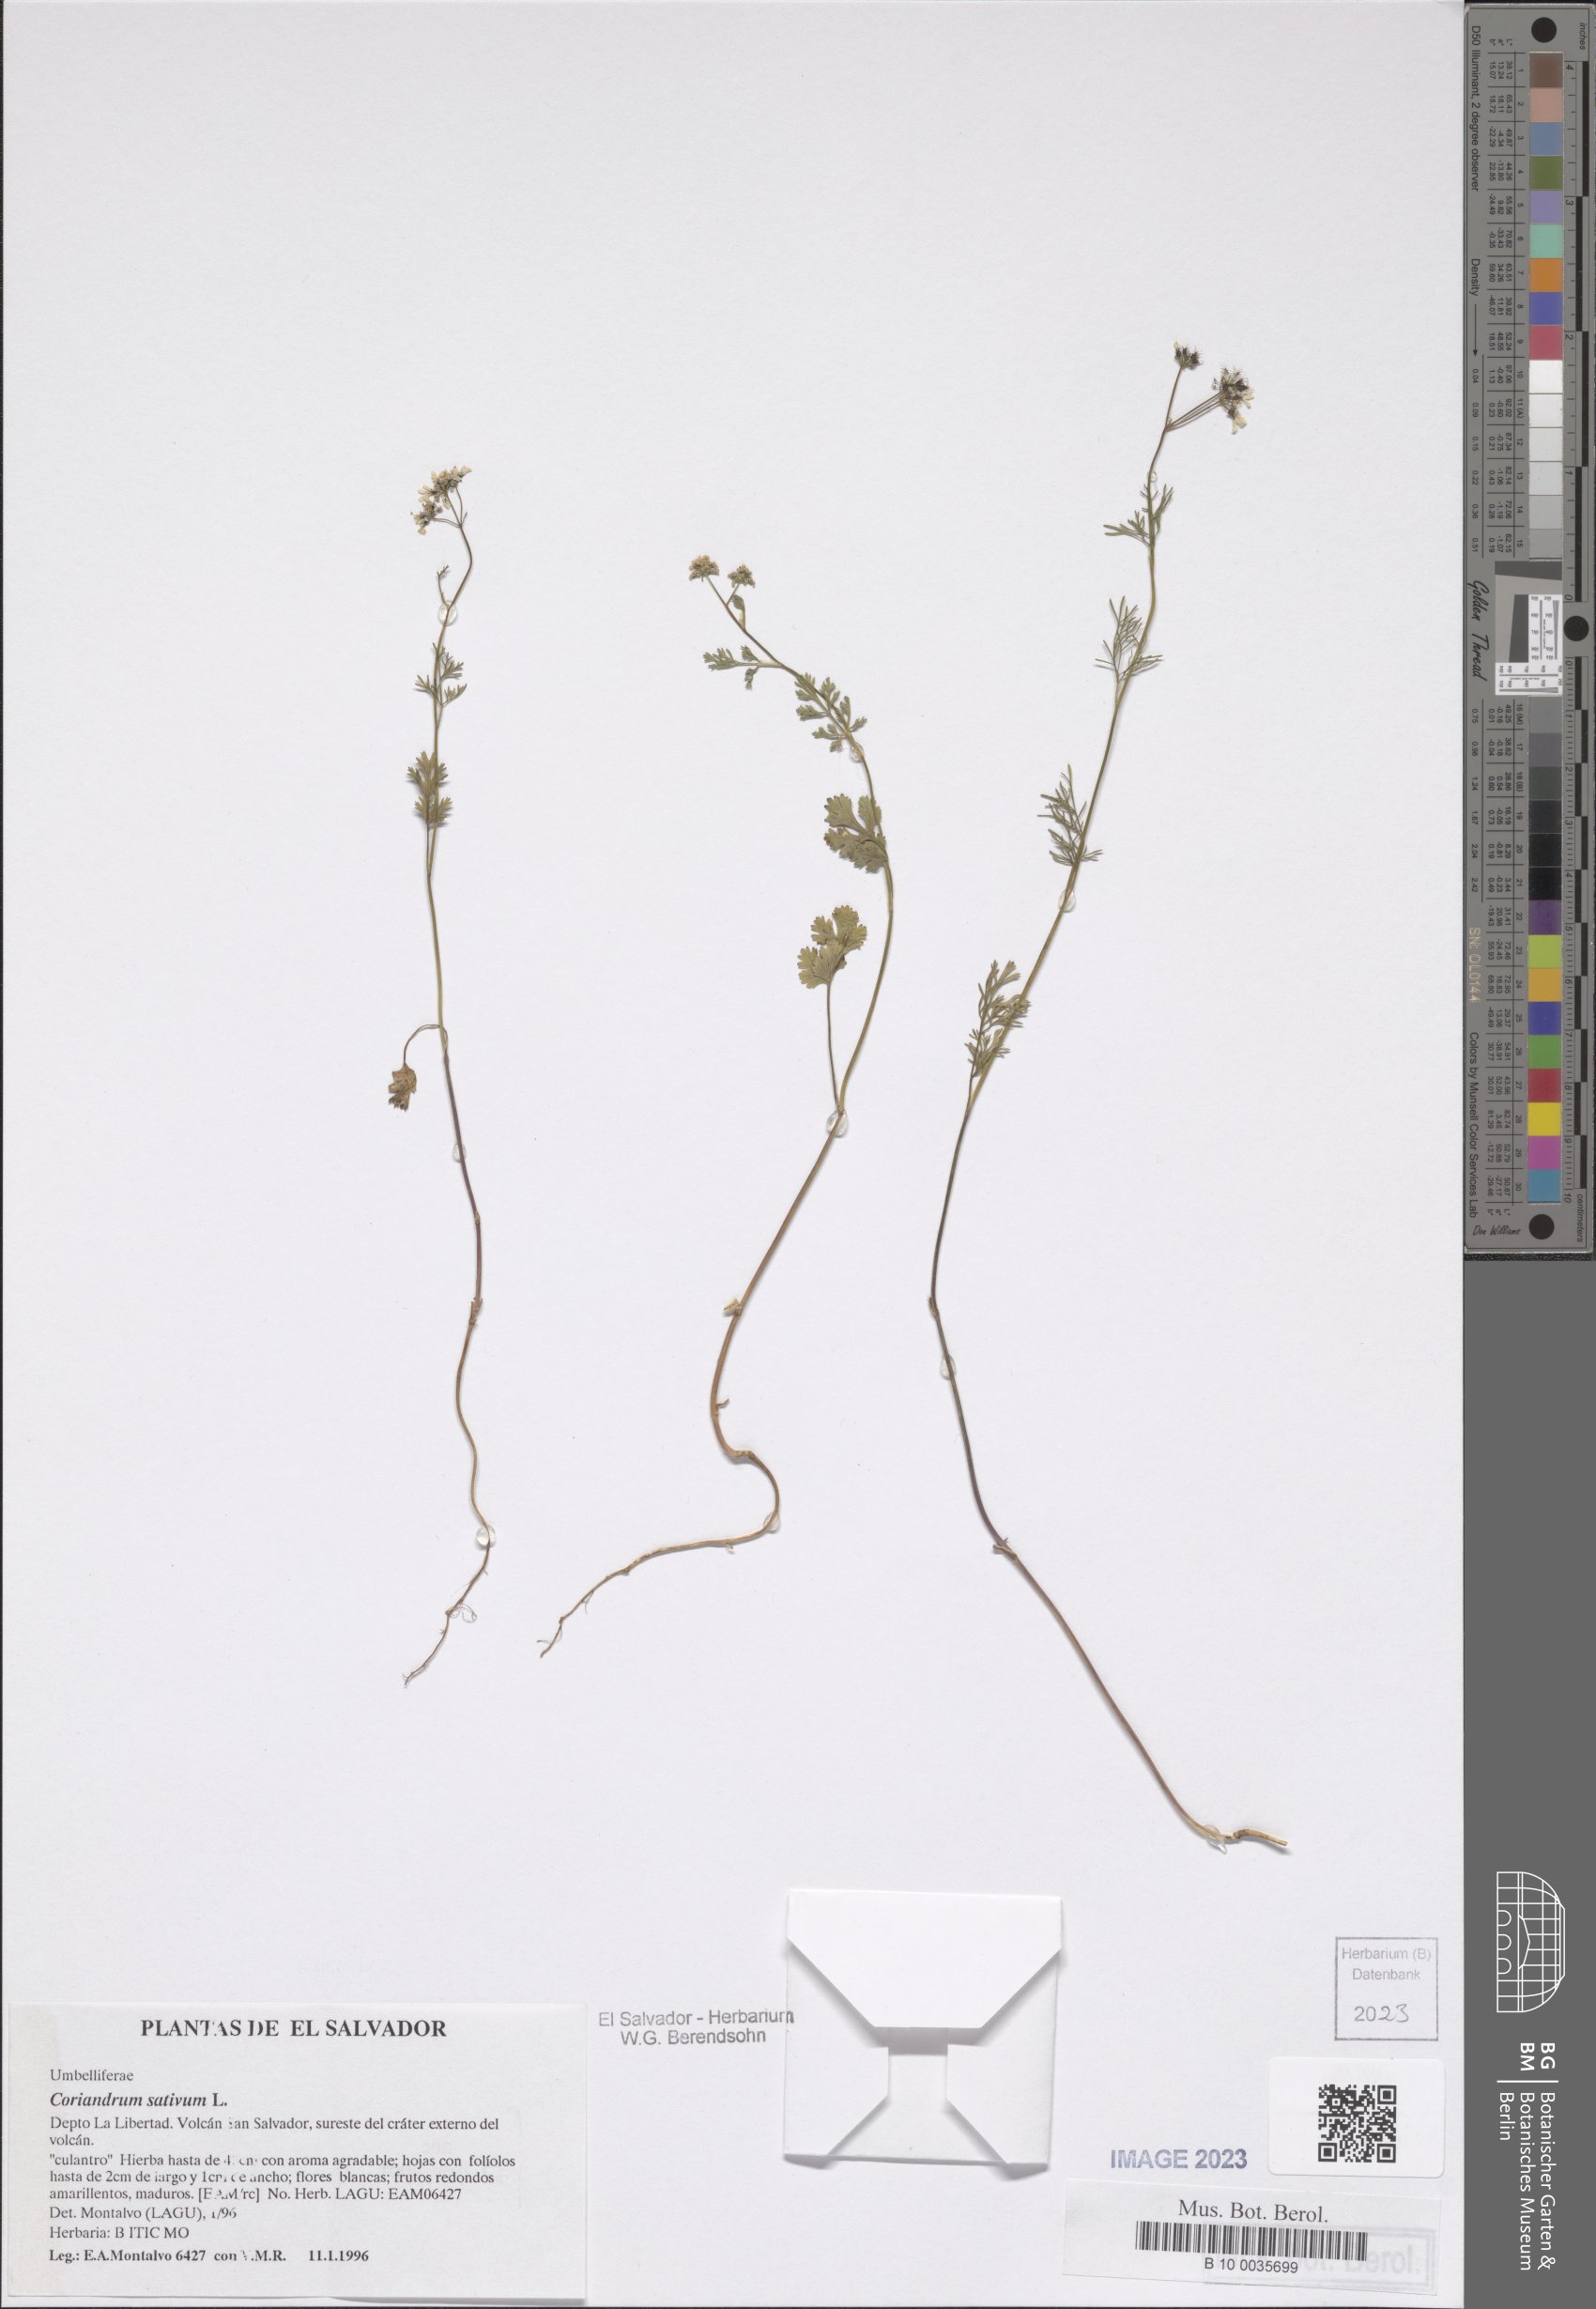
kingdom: Plantae
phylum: Tracheophyta
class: Magnoliopsida
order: Apiales
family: Apiaceae
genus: Coriandrum
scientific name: Coriandrum sativum
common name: Coriander
